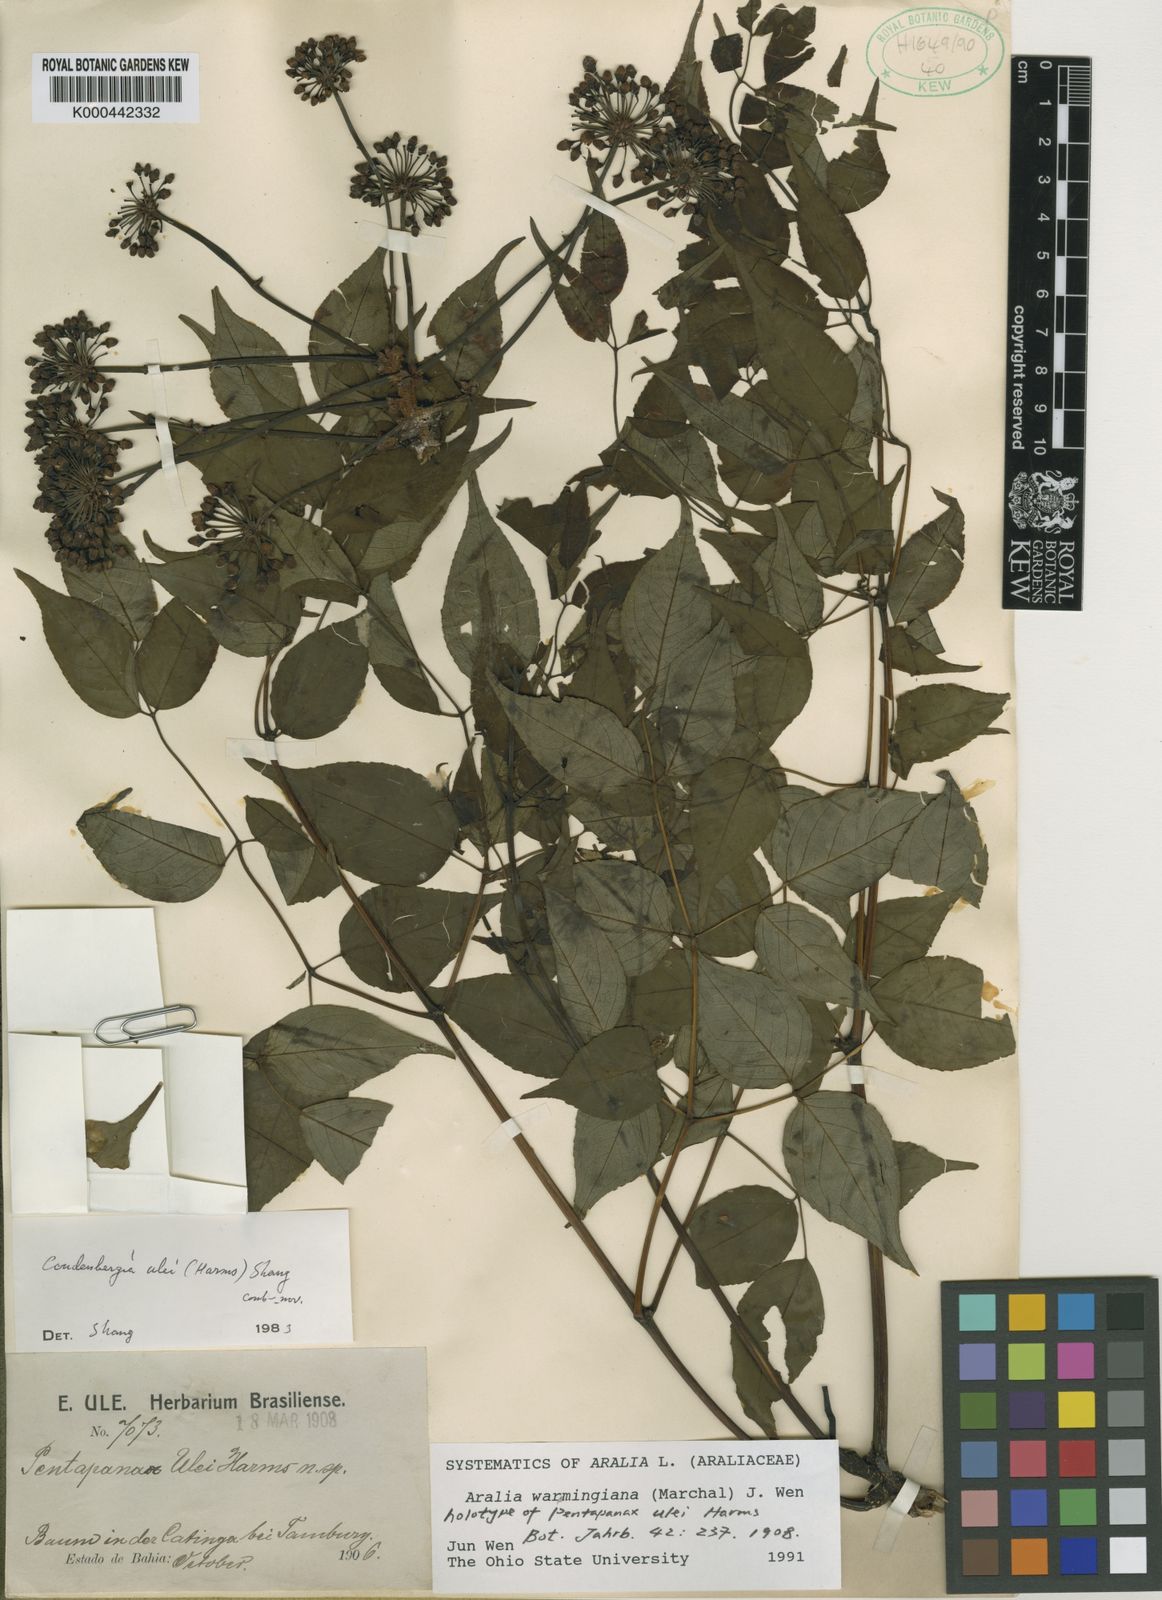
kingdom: Plantae
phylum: Tracheophyta
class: Magnoliopsida
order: Apiales
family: Araliaceae
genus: Aralia
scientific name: Aralia warmingiana
